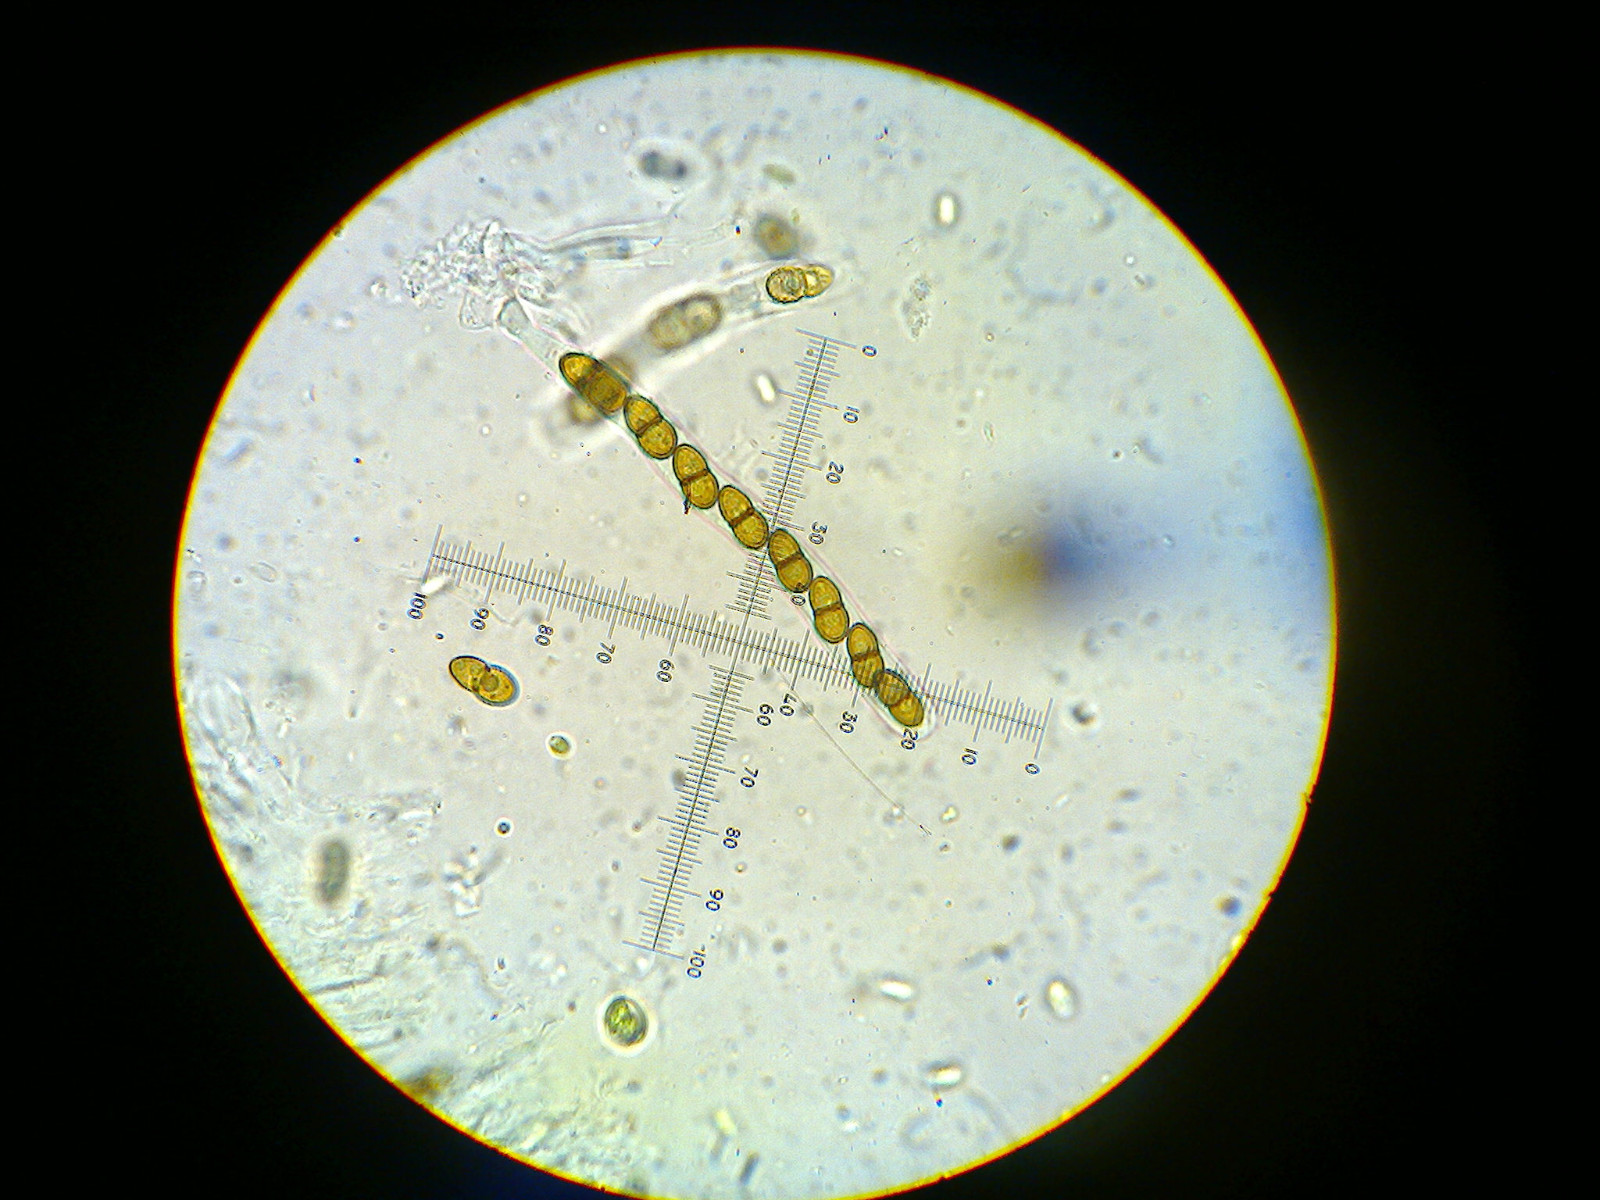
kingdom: Fungi
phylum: Ascomycota
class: Dothideomycetes
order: Pleosporales
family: Phaeosphaeriaceae
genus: Didymocyrtis
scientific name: Didymocyrtis slaptonensis
